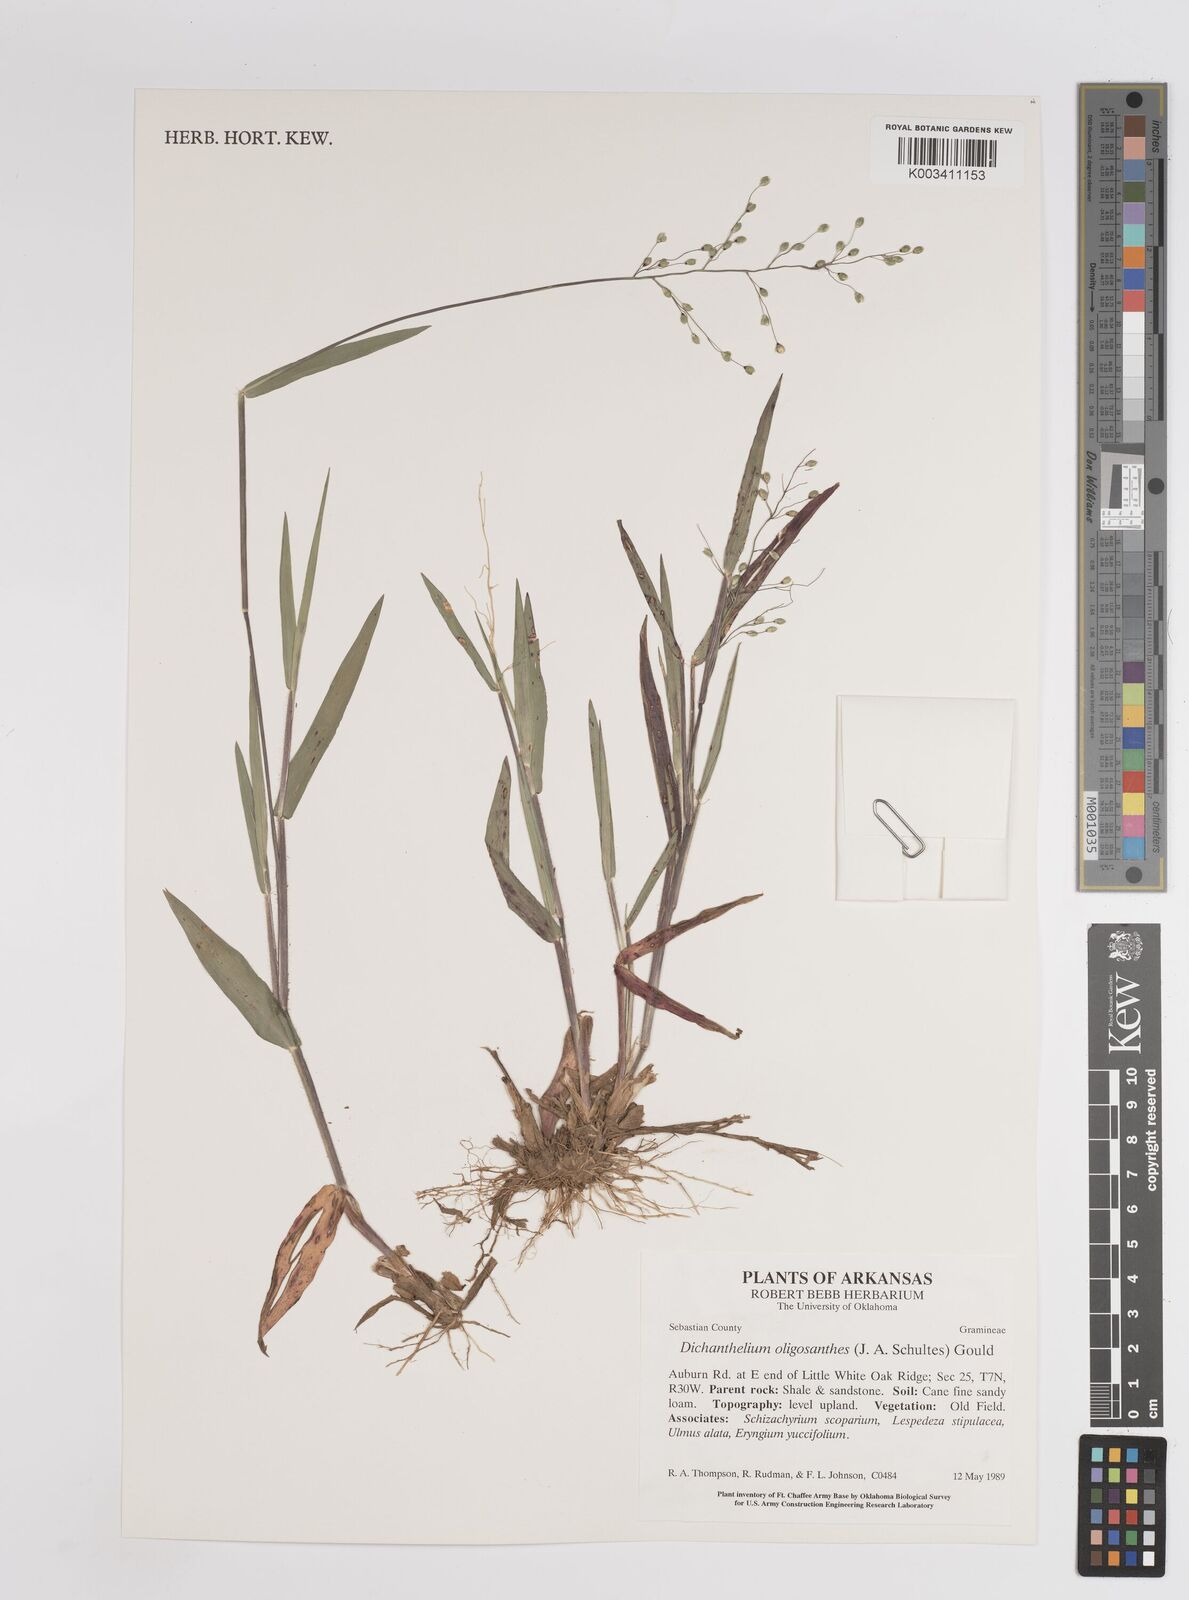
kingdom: Plantae
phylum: Tracheophyta
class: Liliopsida
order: Poales
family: Poaceae
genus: Dichanthelium
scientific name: Dichanthelium oligosanthes
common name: Few-anther obscuregrass
